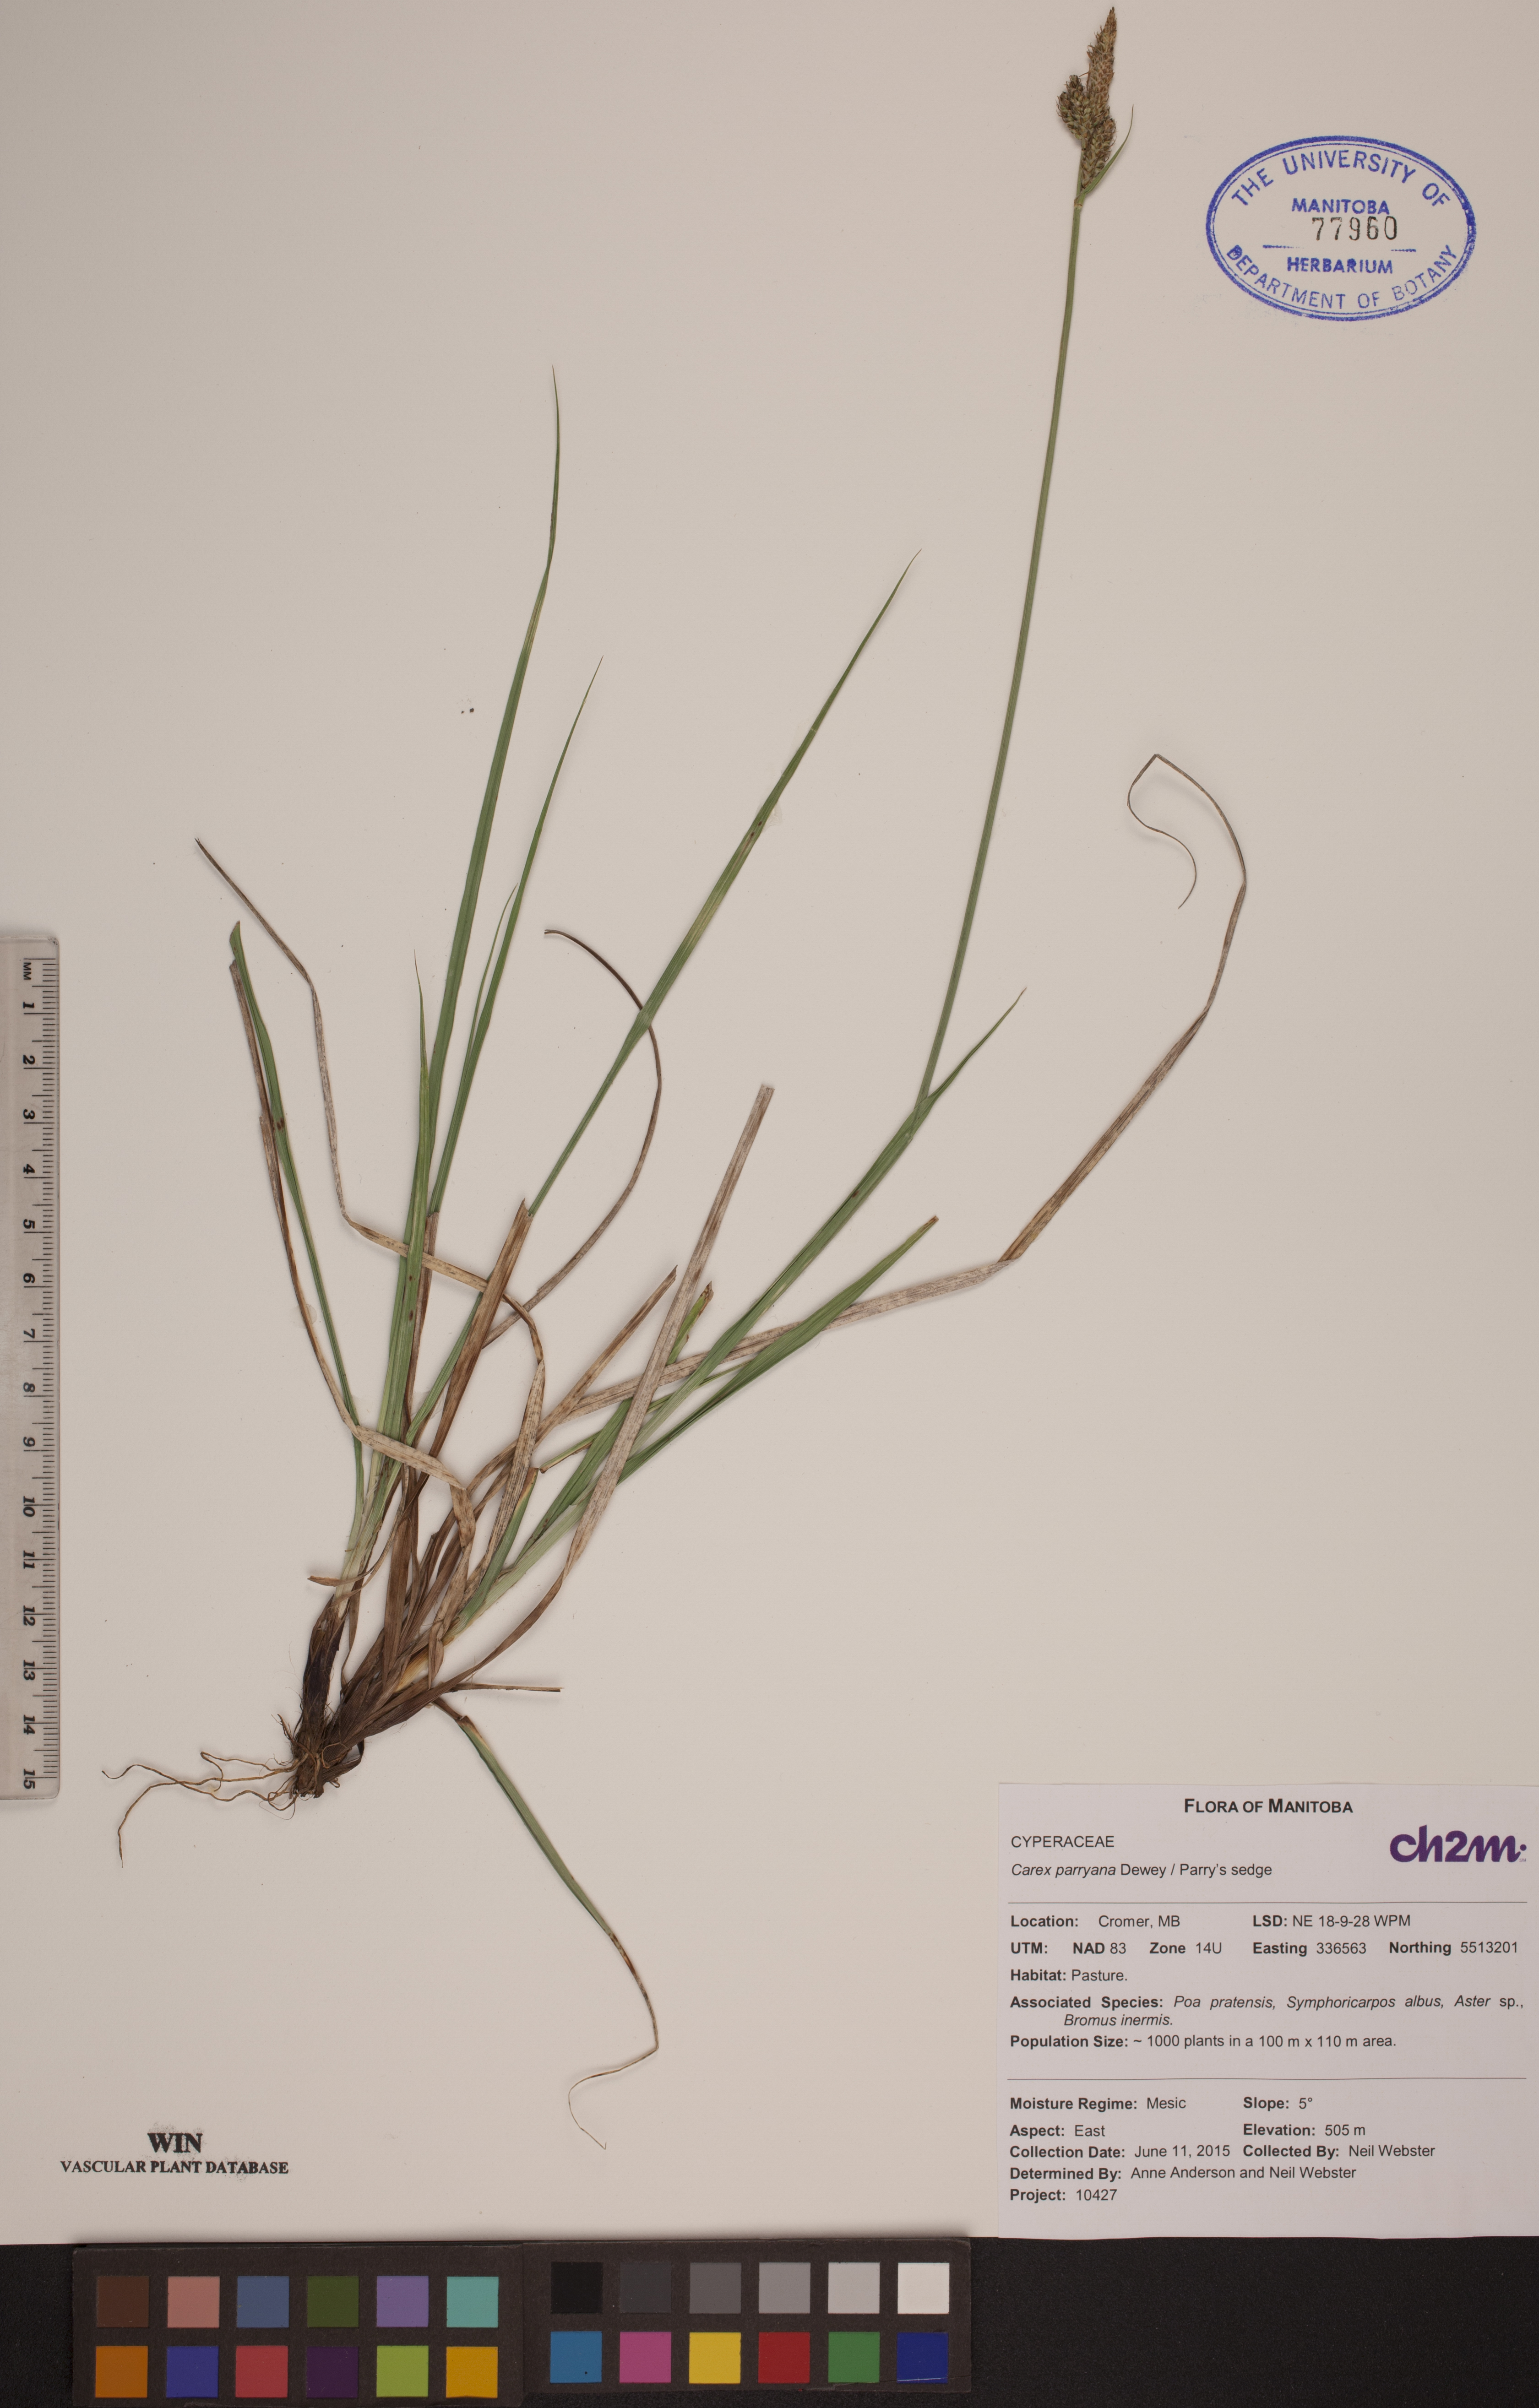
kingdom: Plantae
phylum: Tracheophyta
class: Liliopsida
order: Poales
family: Cyperaceae
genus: Carex
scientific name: Carex parryana
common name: Parry's sedge
